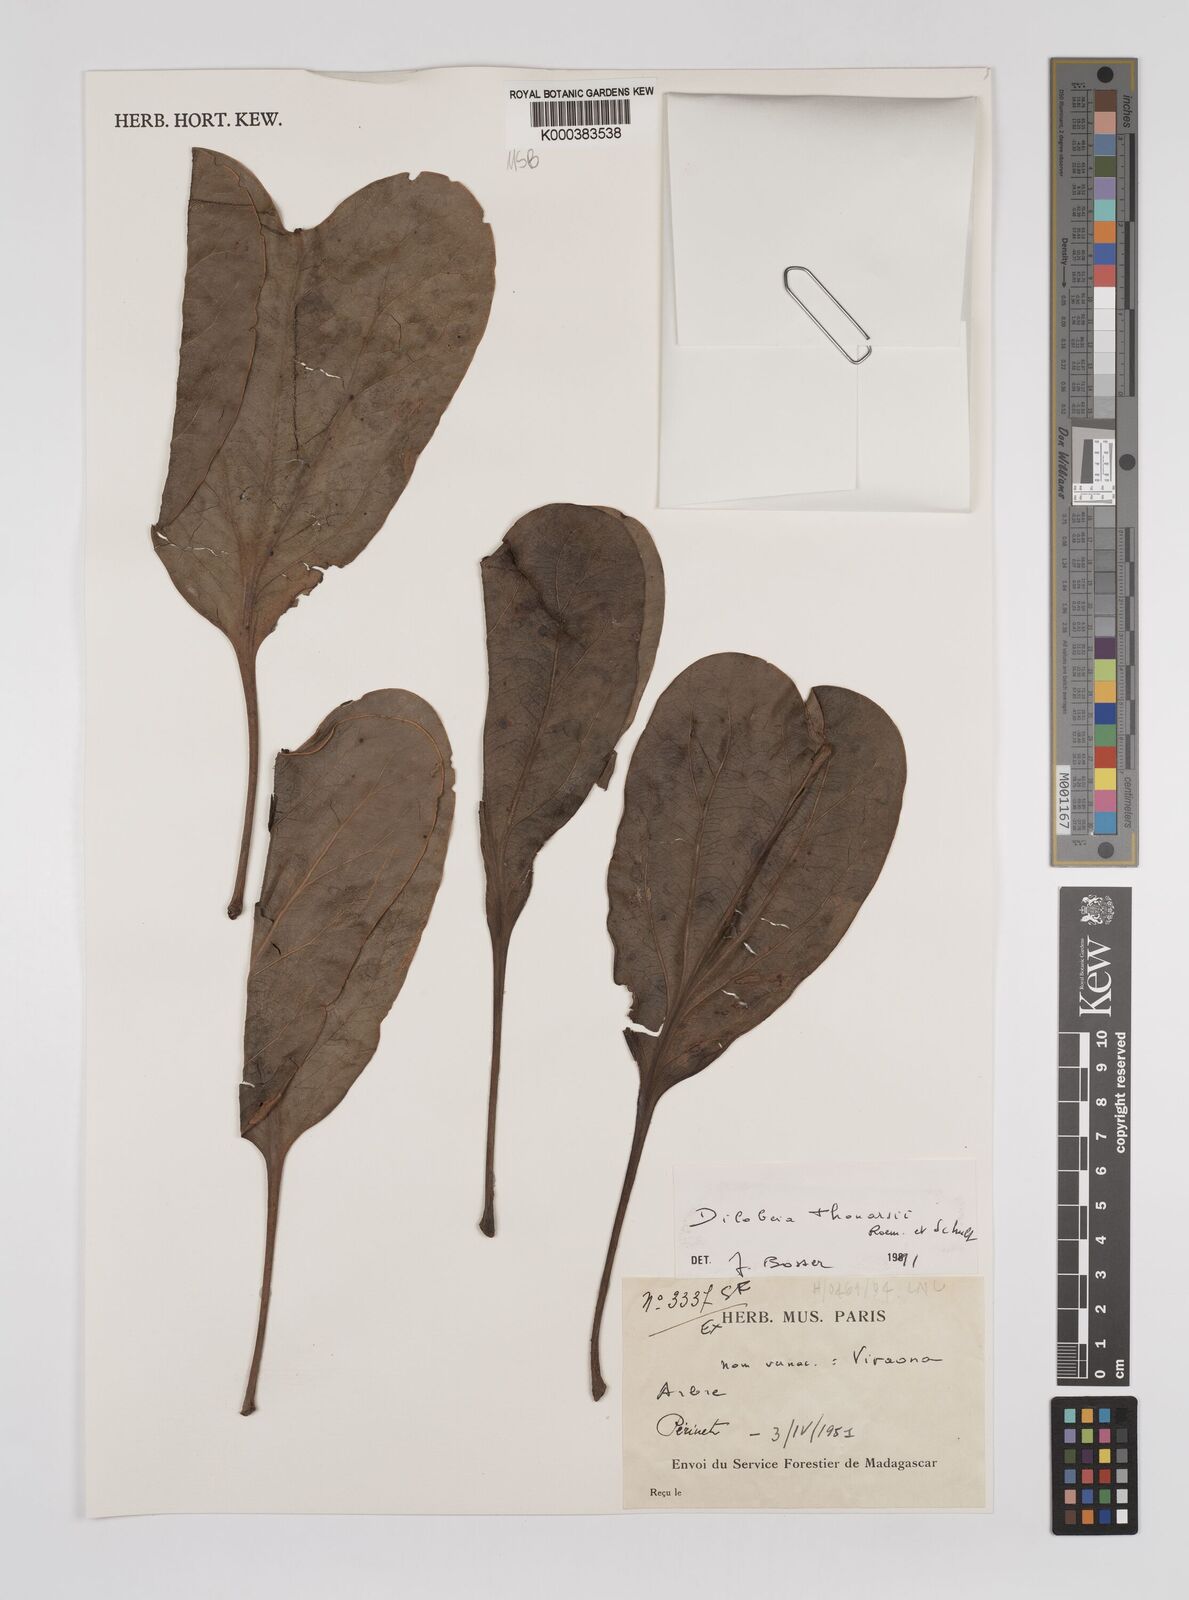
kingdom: Plantae
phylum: Tracheophyta
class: Magnoliopsida
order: Proteales
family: Proteaceae
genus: Dilobeia
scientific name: Dilobeia thouarsii
